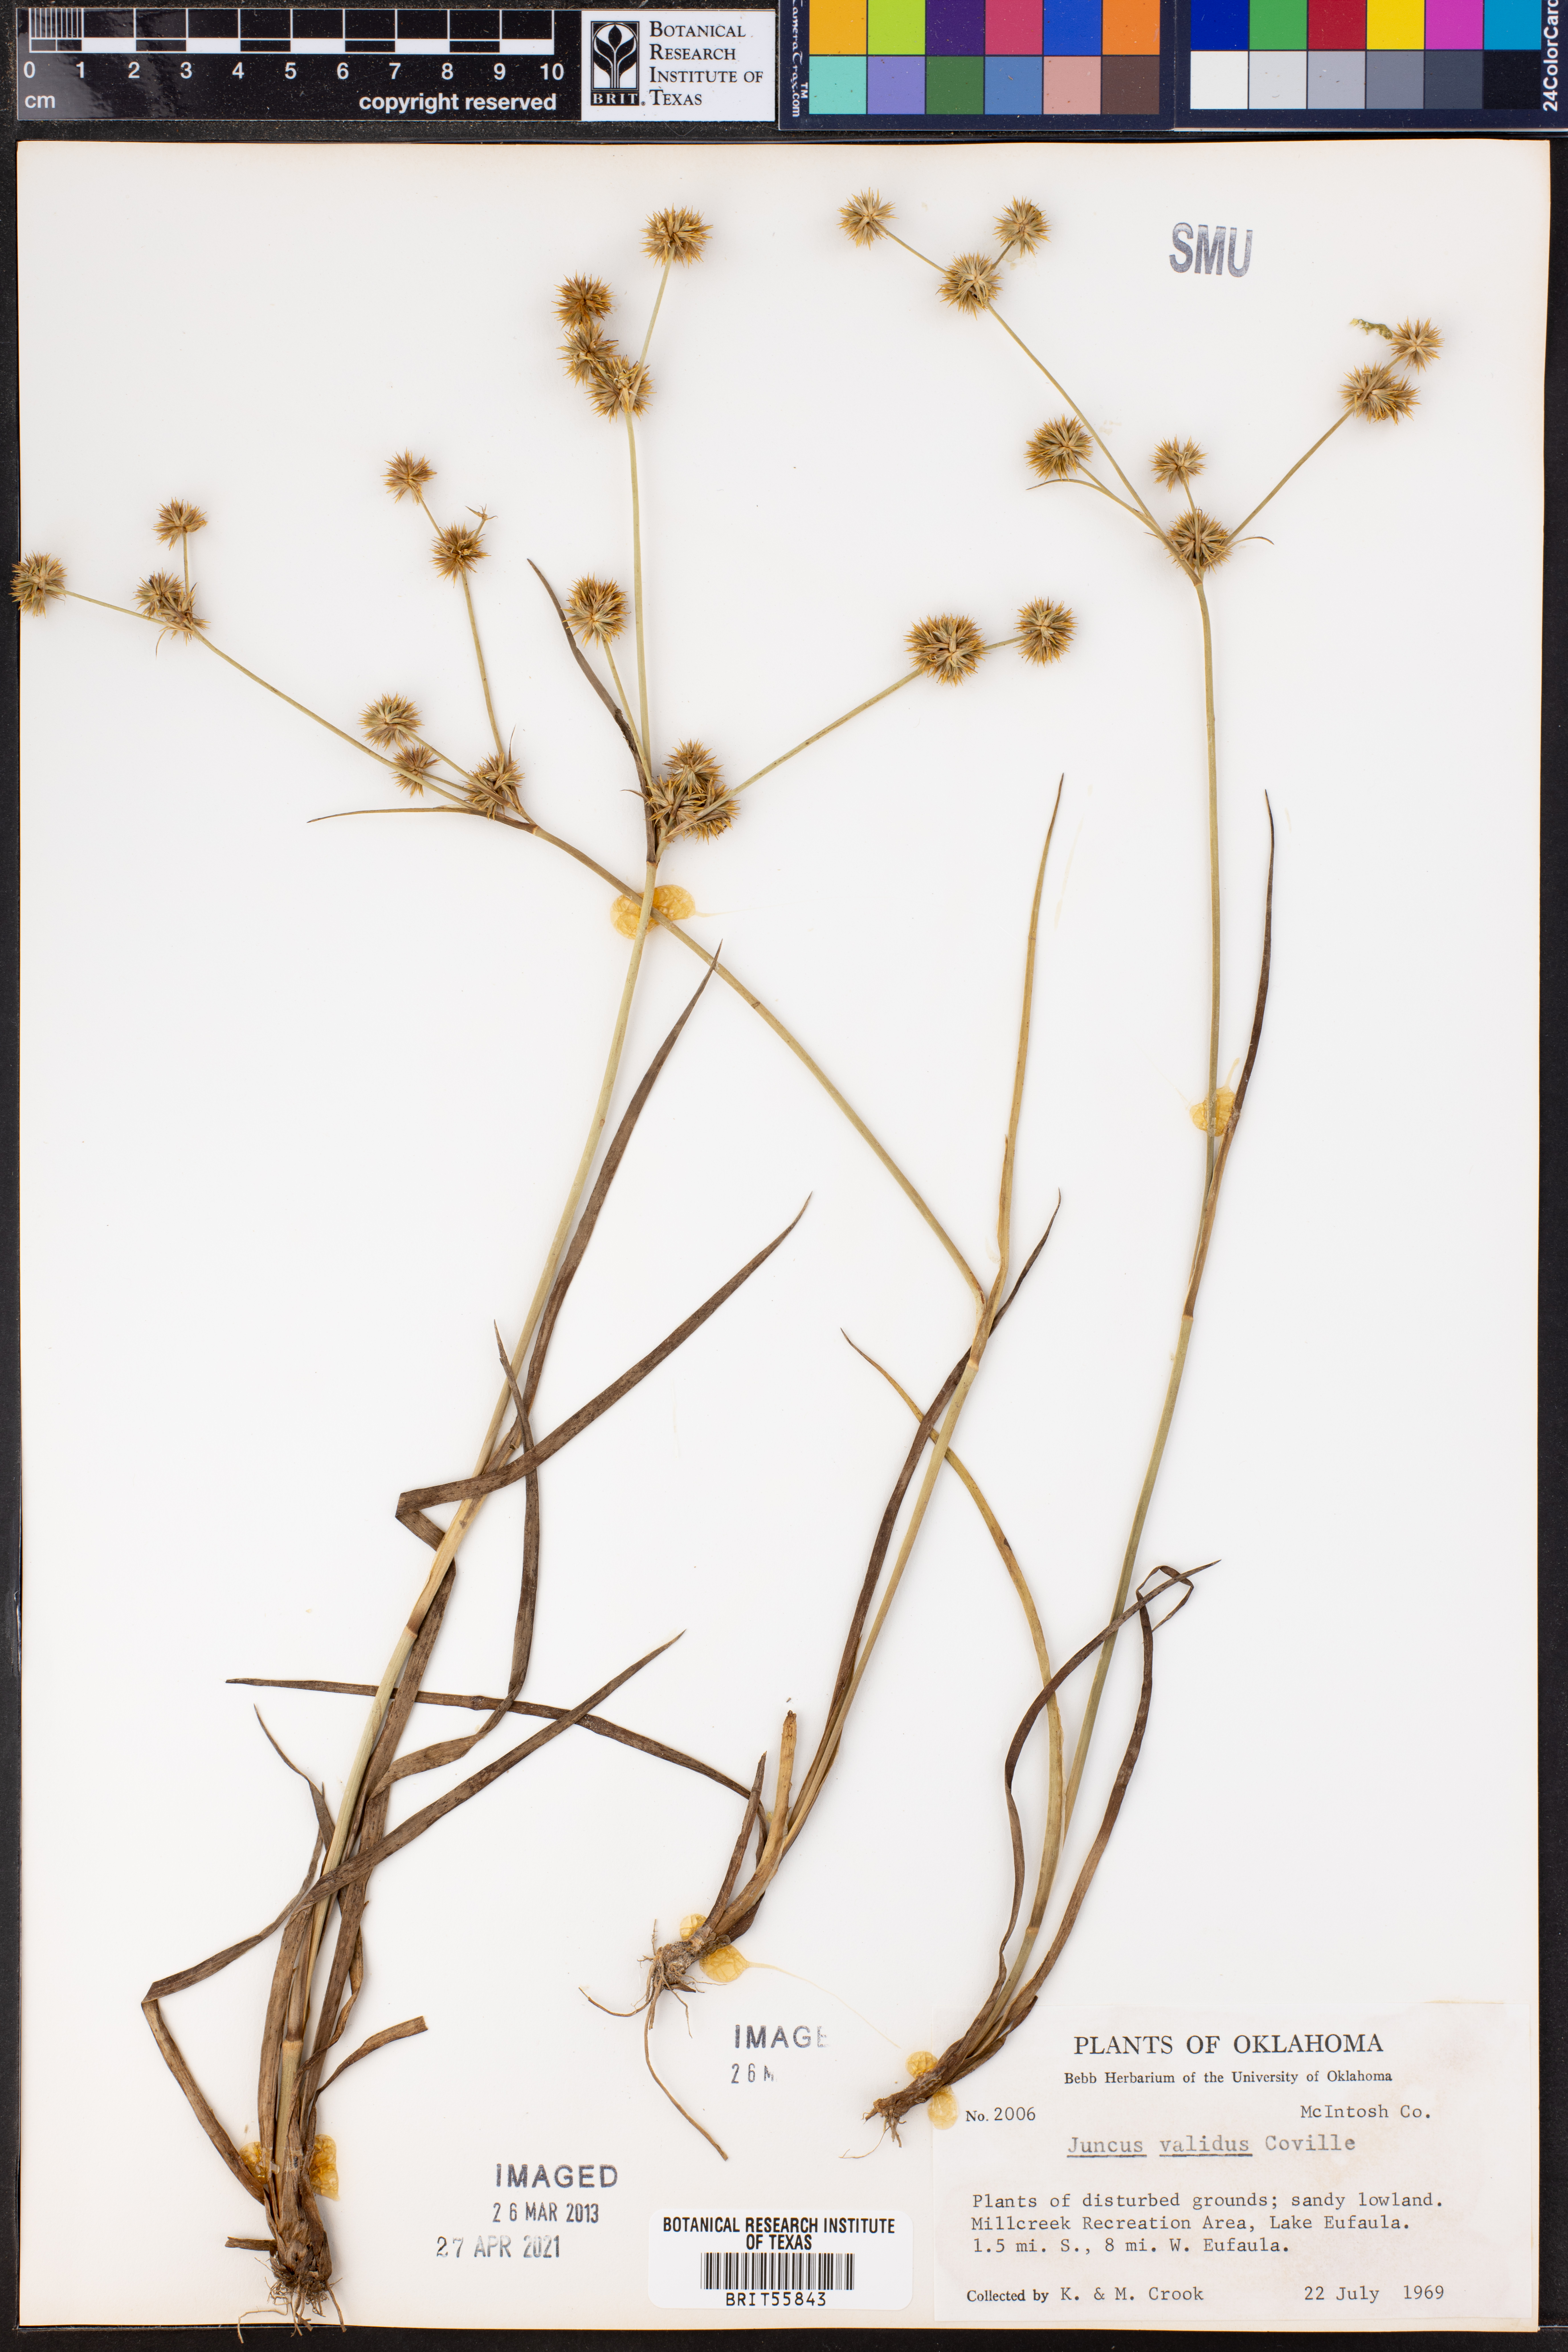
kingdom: Plantae
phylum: Tracheophyta
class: Liliopsida
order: Poales
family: Juncaceae
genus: Juncus
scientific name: Juncus validus
